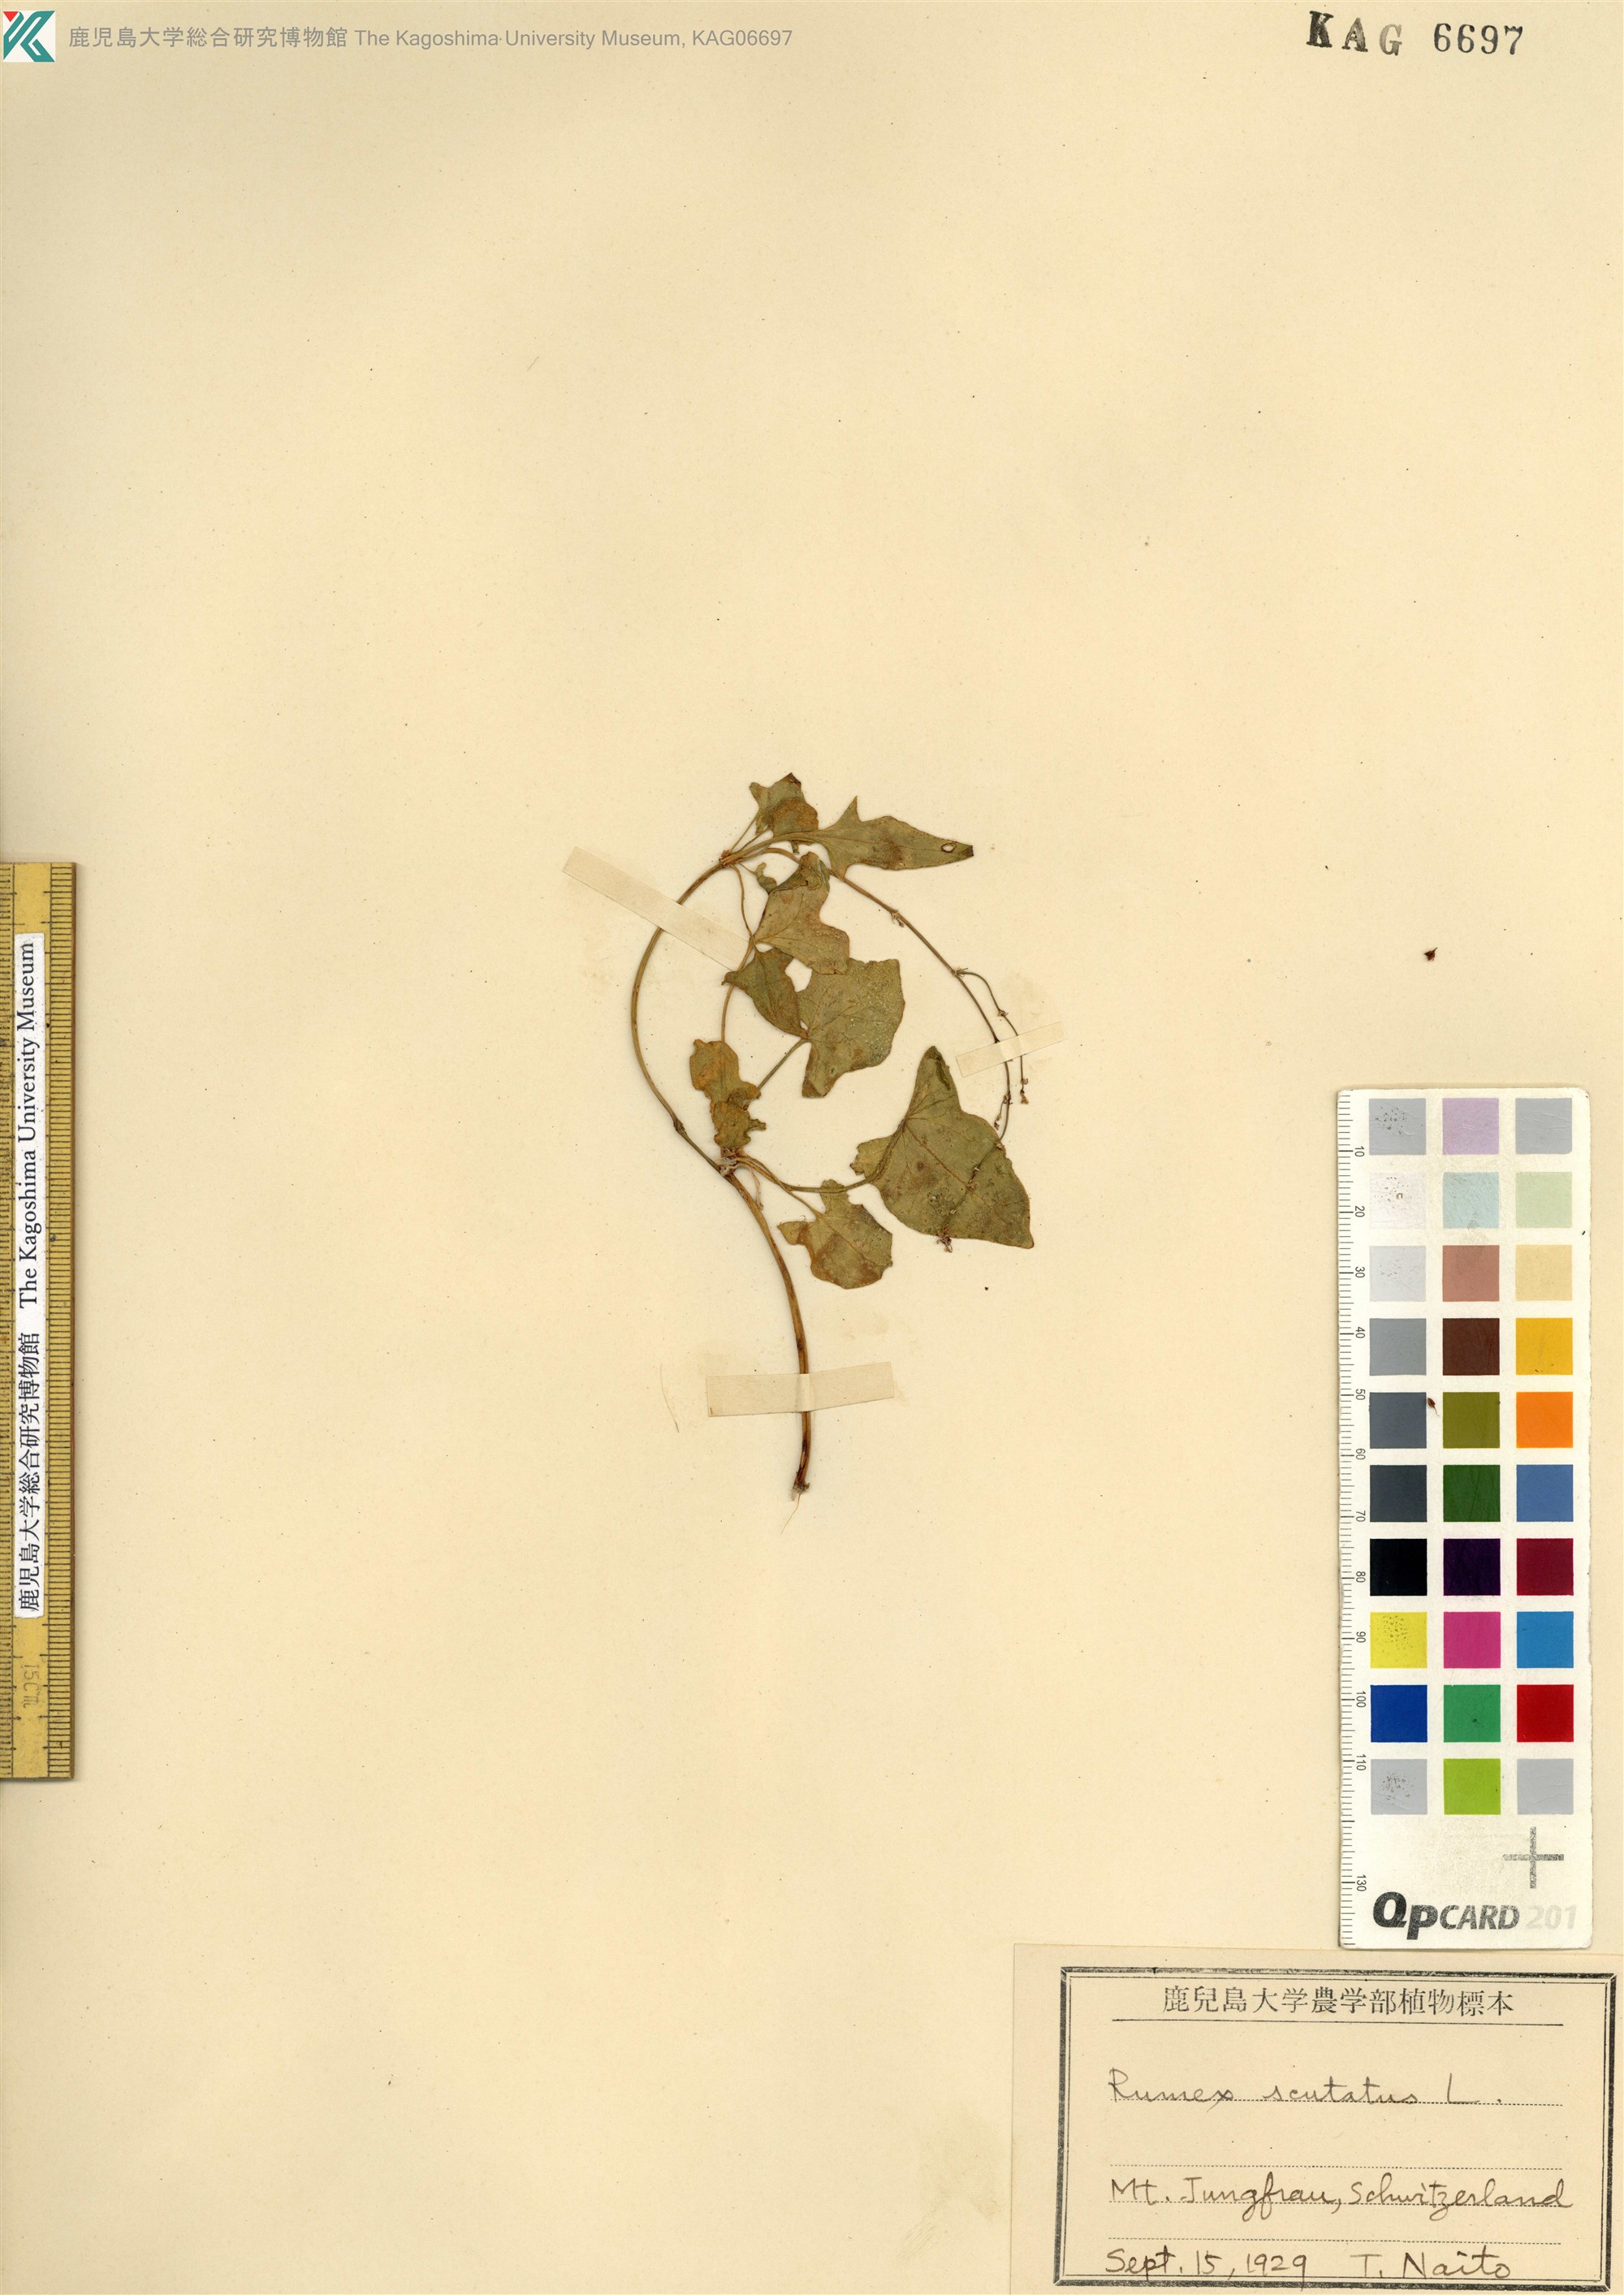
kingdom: Plantae
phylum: Tracheophyta
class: Magnoliopsida
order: Caryophyllales
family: Polygonaceae
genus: Rumex
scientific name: Rumex scutatus
